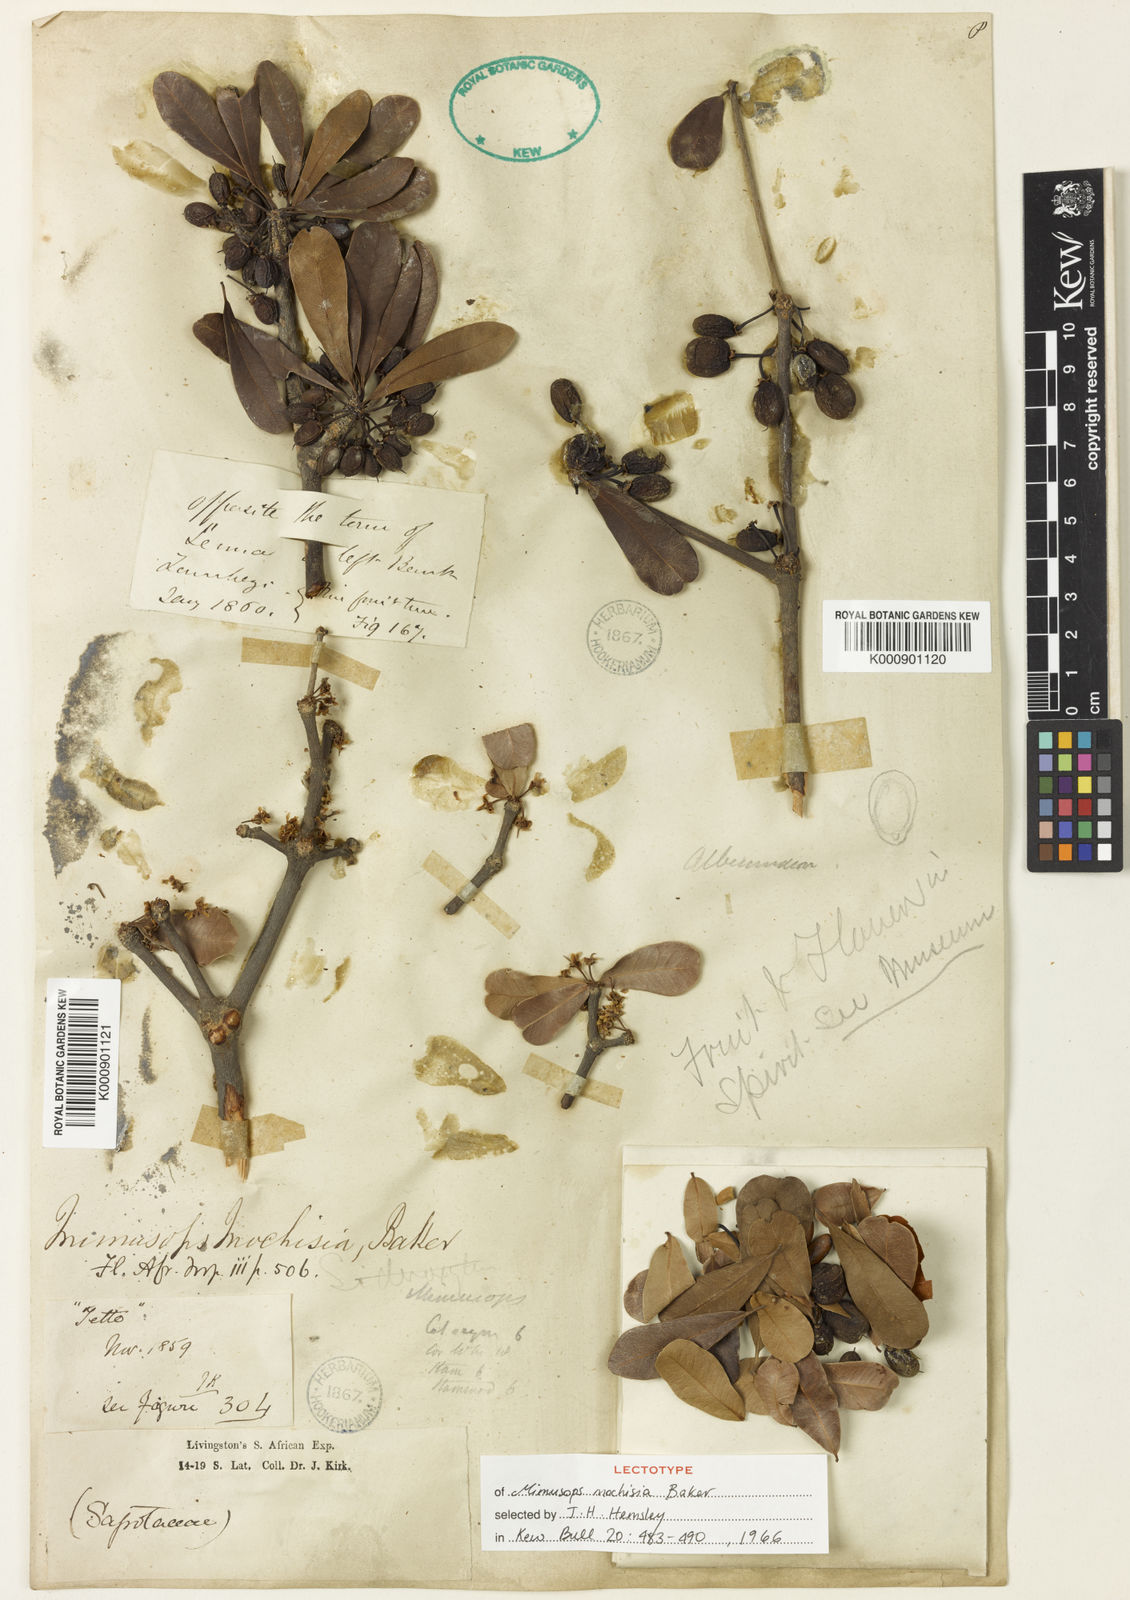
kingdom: Plantae
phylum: Tracheophyta
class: Magnoliopsida
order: Ericales
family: Sapotaceae
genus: Manilkara
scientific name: Manilkara mochisia
